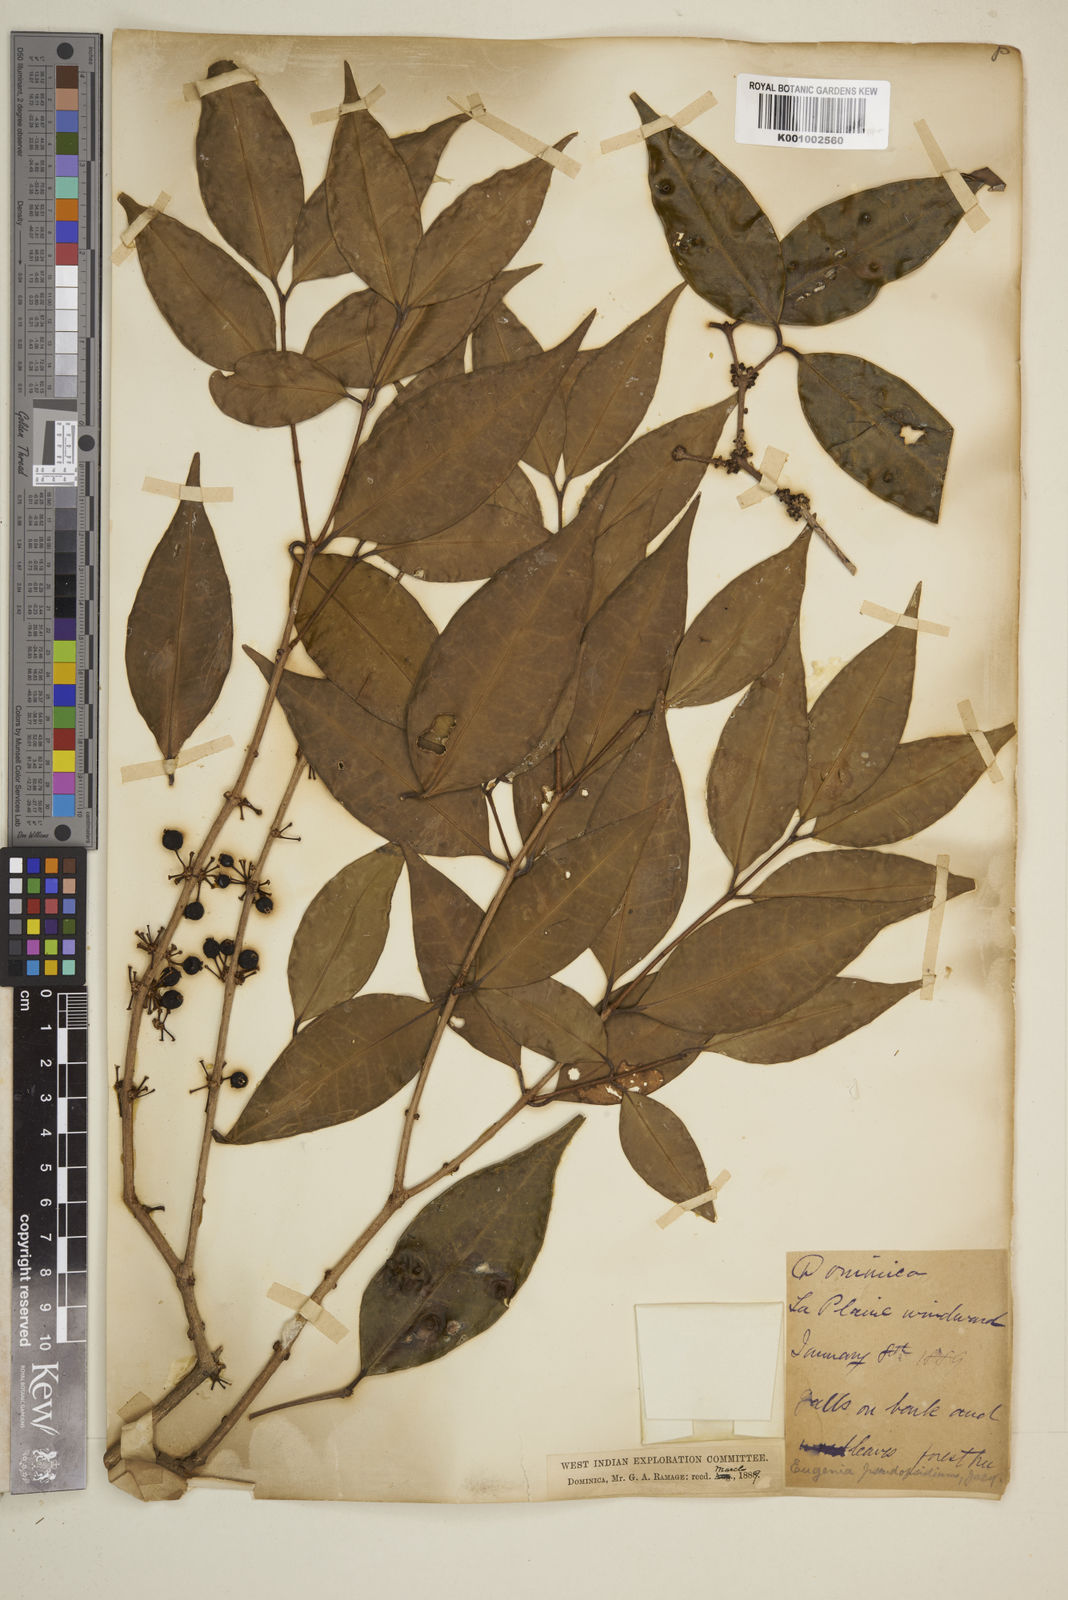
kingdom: Plantae
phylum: Tracheophyta
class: Magnoliopsida
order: Myrtales
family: Myrtaceae
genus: Eugenia
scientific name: Eugenia lambertiana
